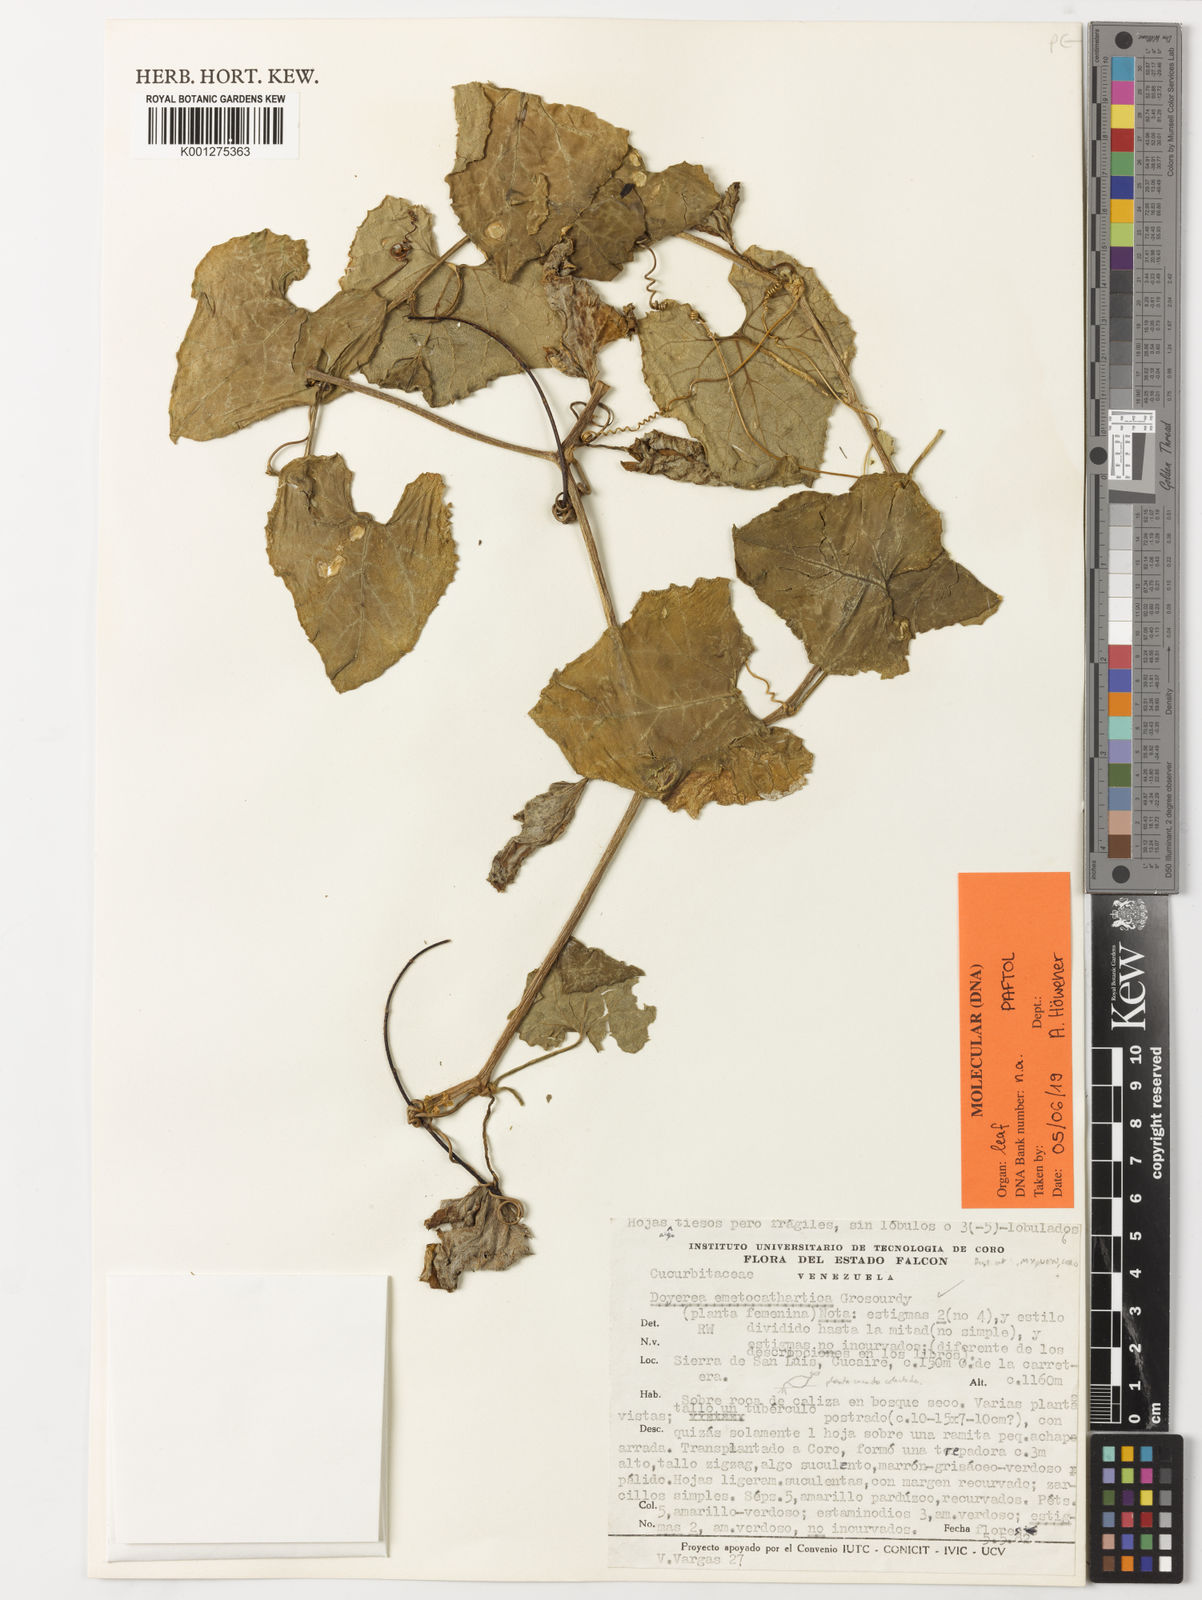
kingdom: Plantae
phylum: Tracheophyta
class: Magnoliopsida
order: Cucurbitales
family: Cucurbitaceae
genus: Doyerea
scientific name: Doyerea emetocathartica
